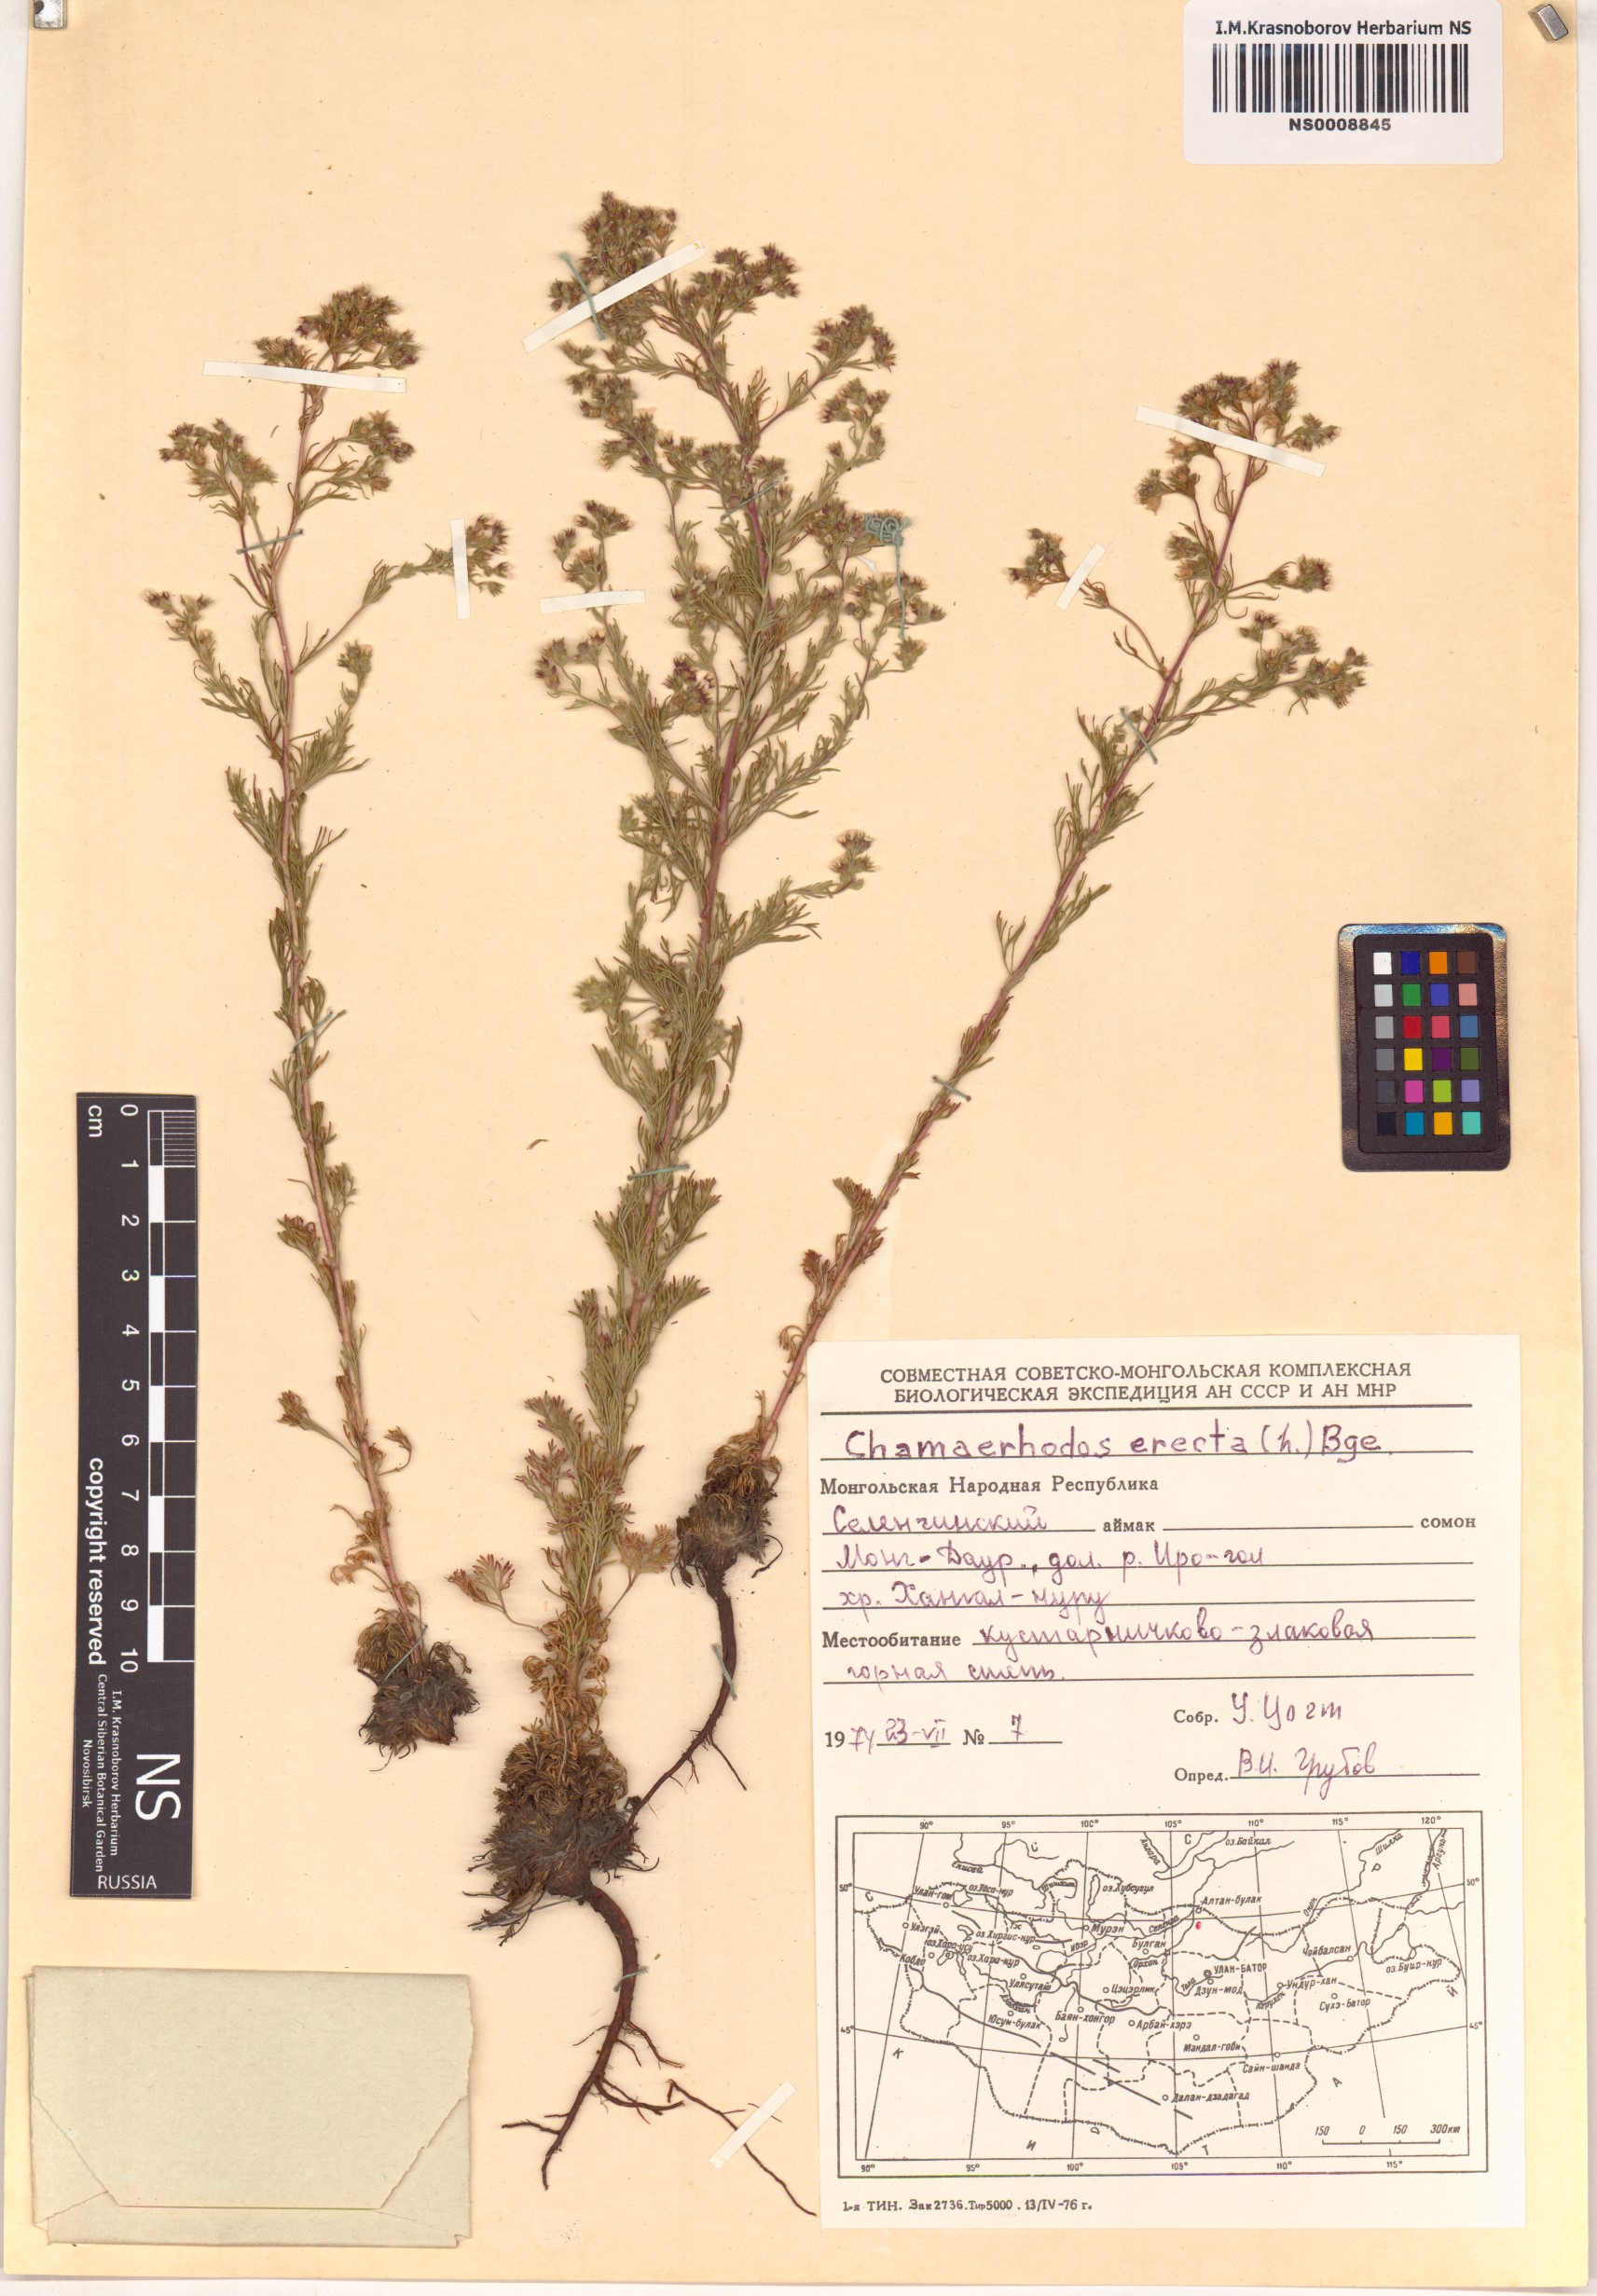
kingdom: Plantae
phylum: Tracheophyta
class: Magnoliopsida
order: Rosales
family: Rosaceae
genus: Chamaerhodos
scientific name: Chamaerhodos erecta
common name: American chamaerhodos
